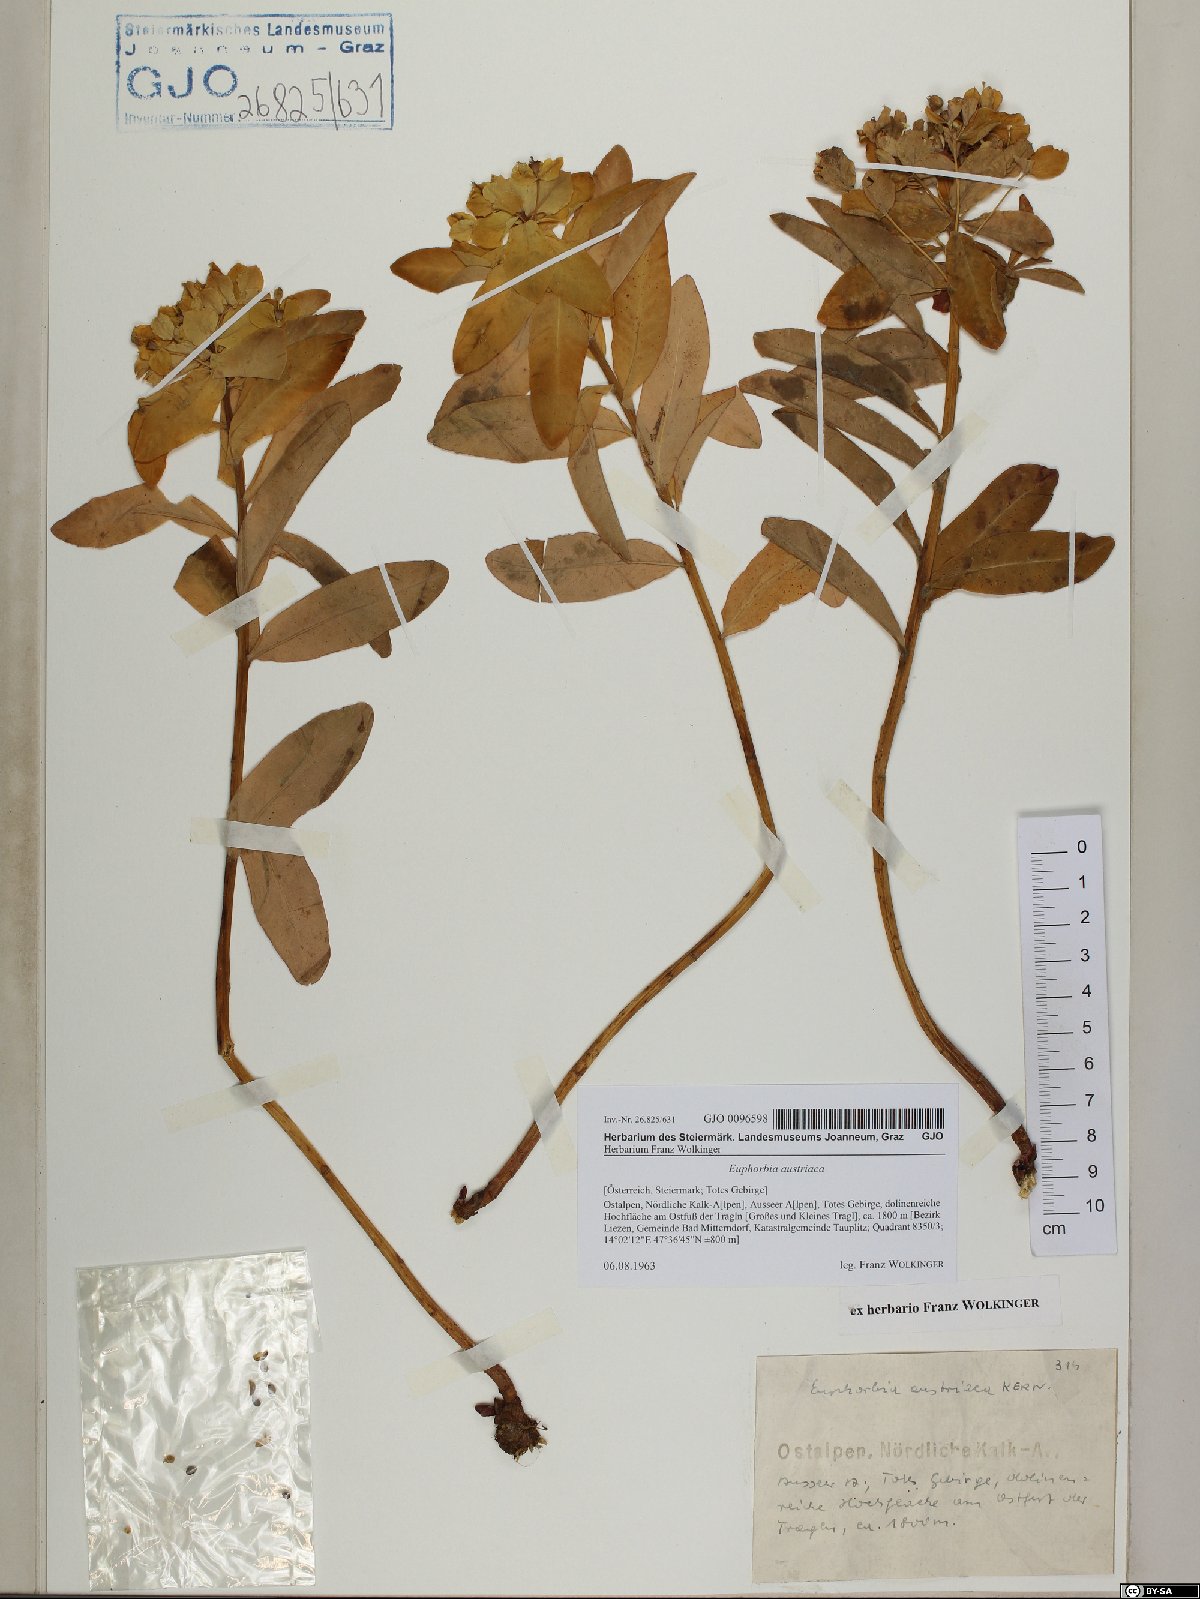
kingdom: Plantae
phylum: Tracheophyta
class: Magnoliopsida
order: Malpighiales
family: Euphorbiaceae
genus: Euphorbia
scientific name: Euphorbia austriaca
